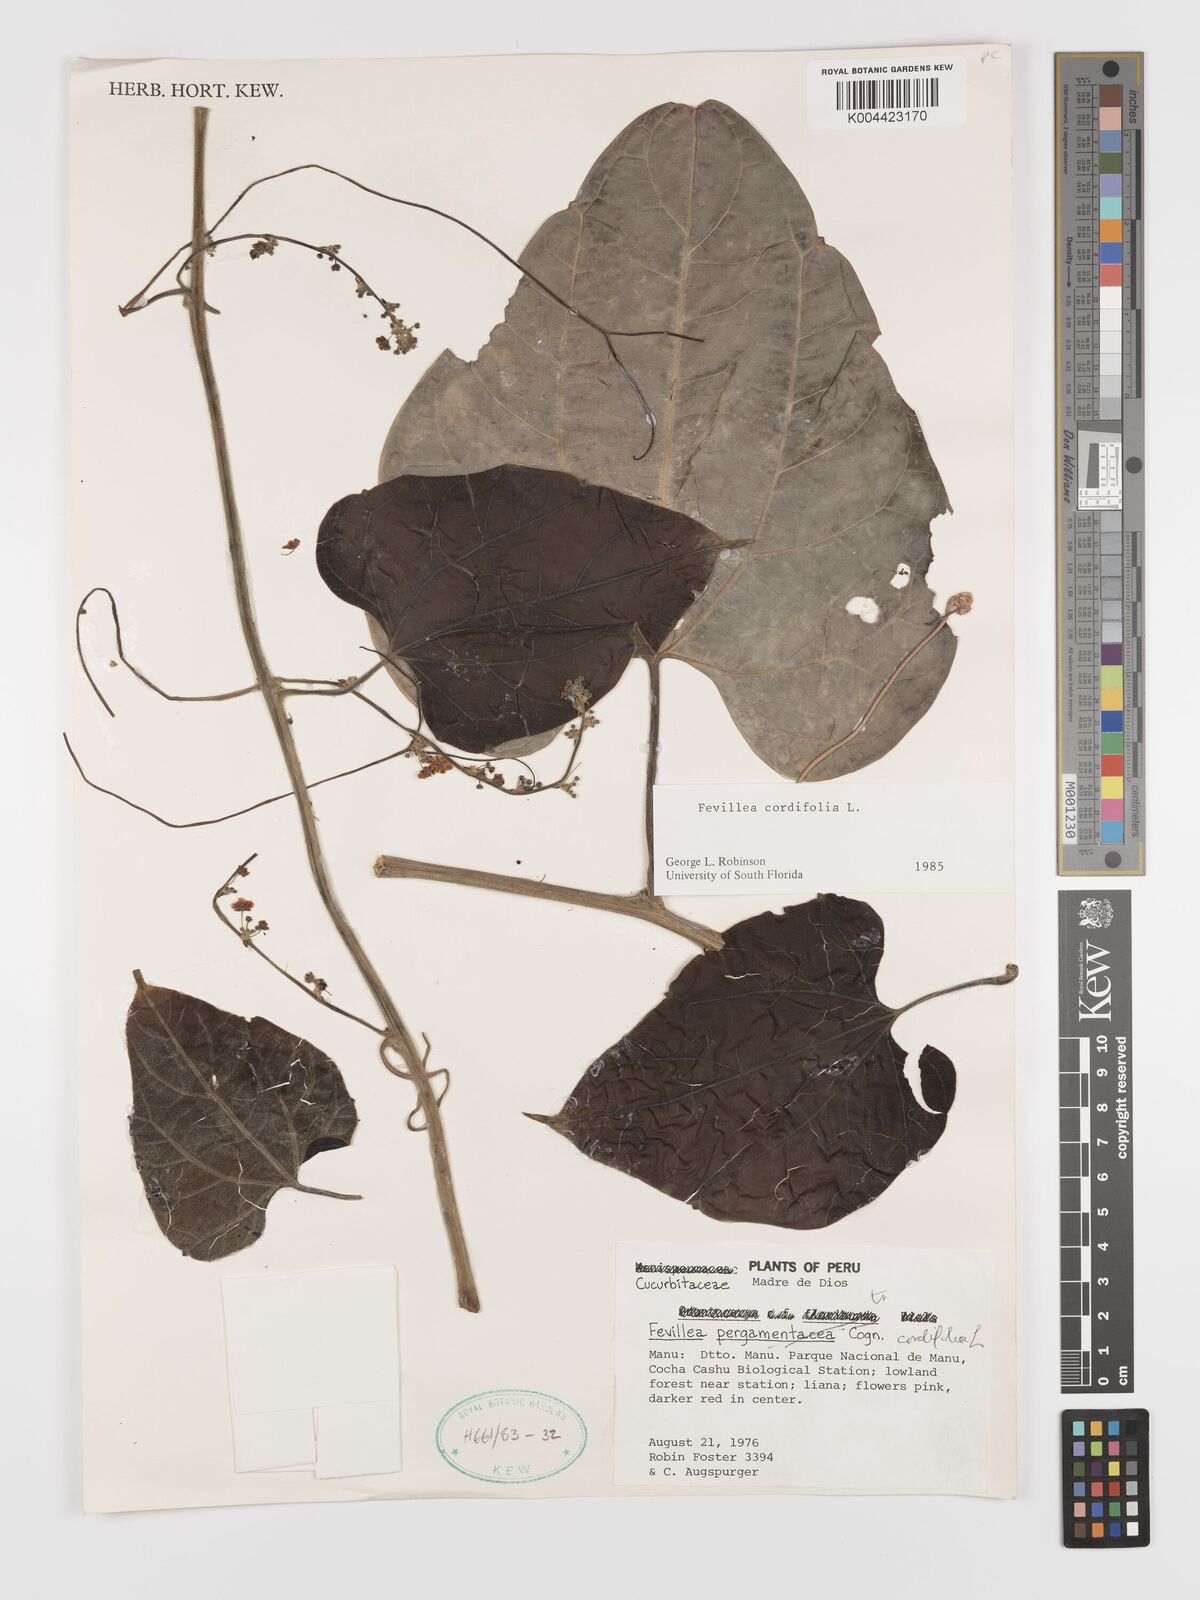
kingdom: Plantae
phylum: Tracheophyta
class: Magnoliopsida
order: Cucurbitales
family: Cucurbitaceae
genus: Fevillea
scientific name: Fevillea
